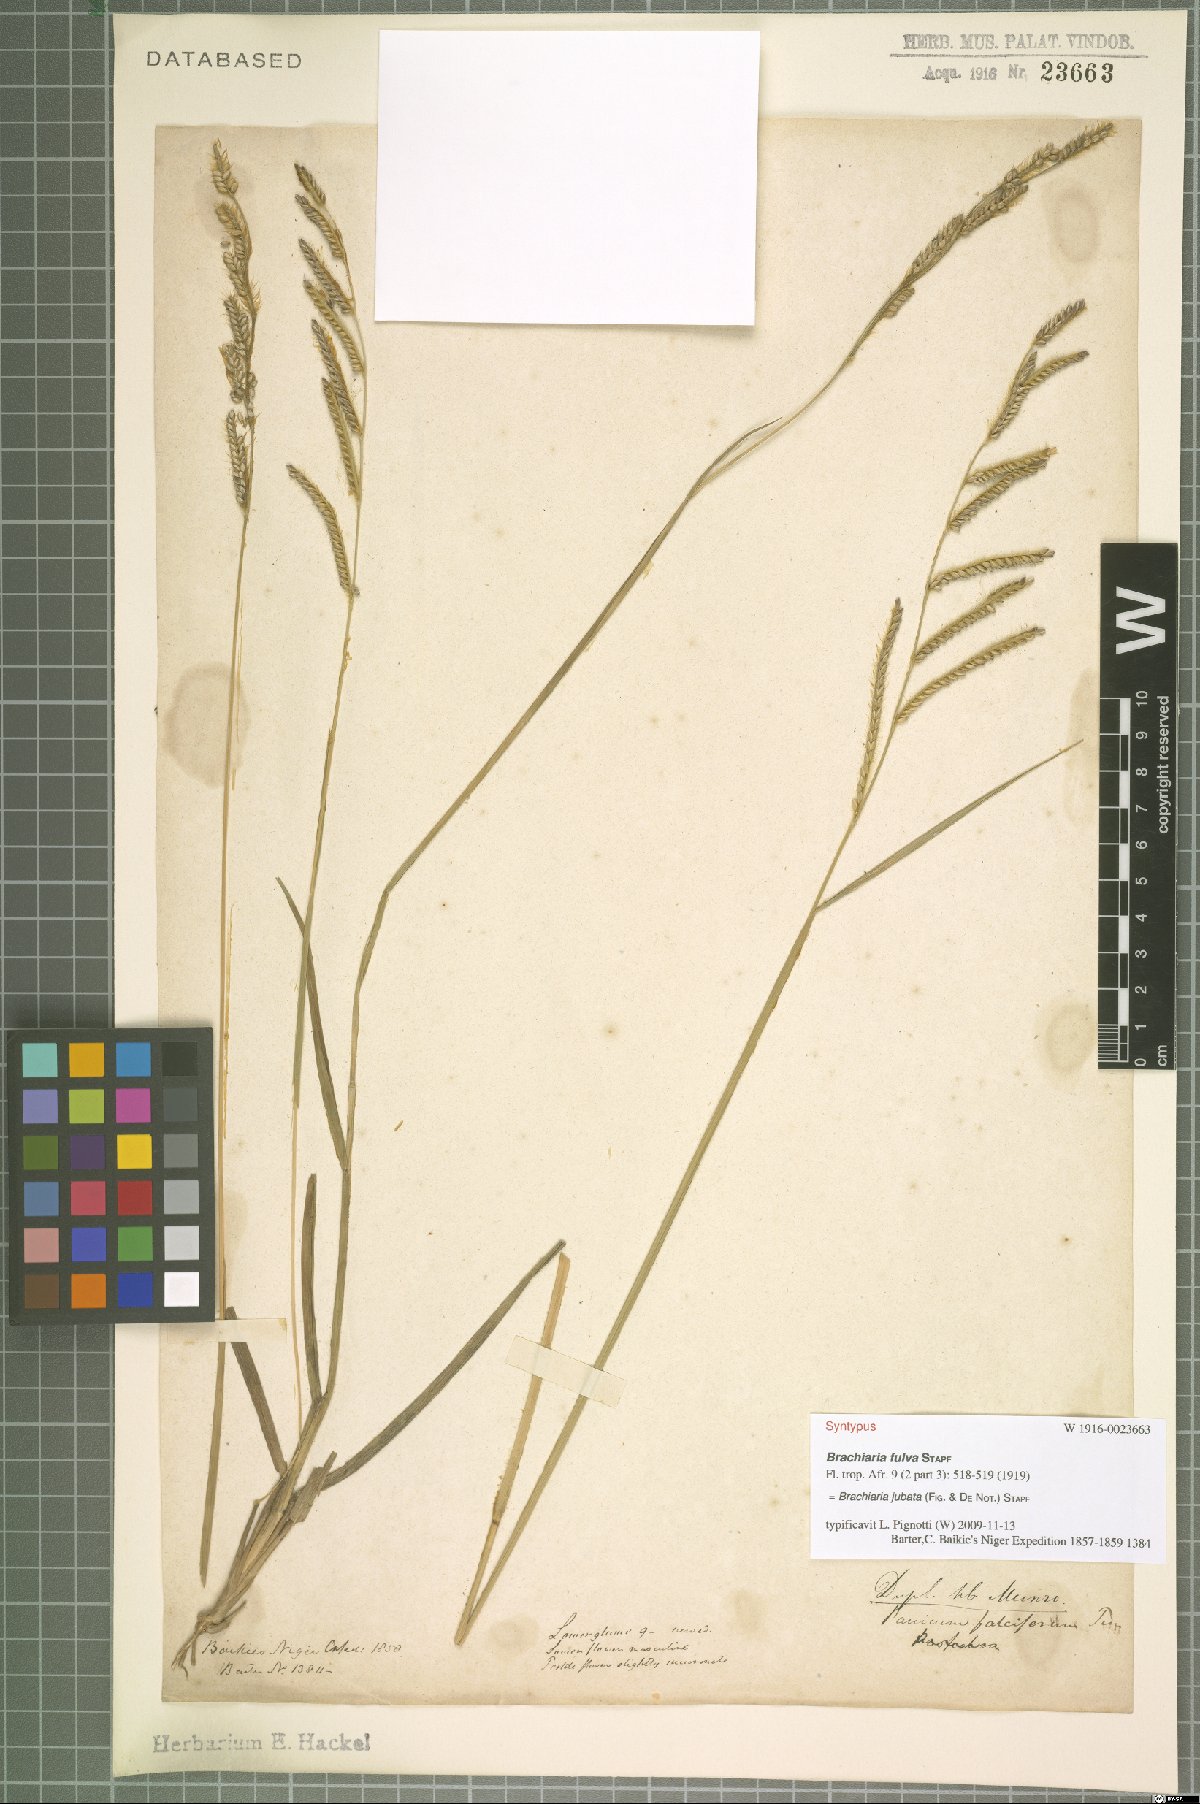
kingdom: Plantae
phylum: Tracheophyta
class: Liliopsida
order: Poales
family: Poaceae
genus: Urochloa
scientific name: Urochloa jubata
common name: Buffalograss
